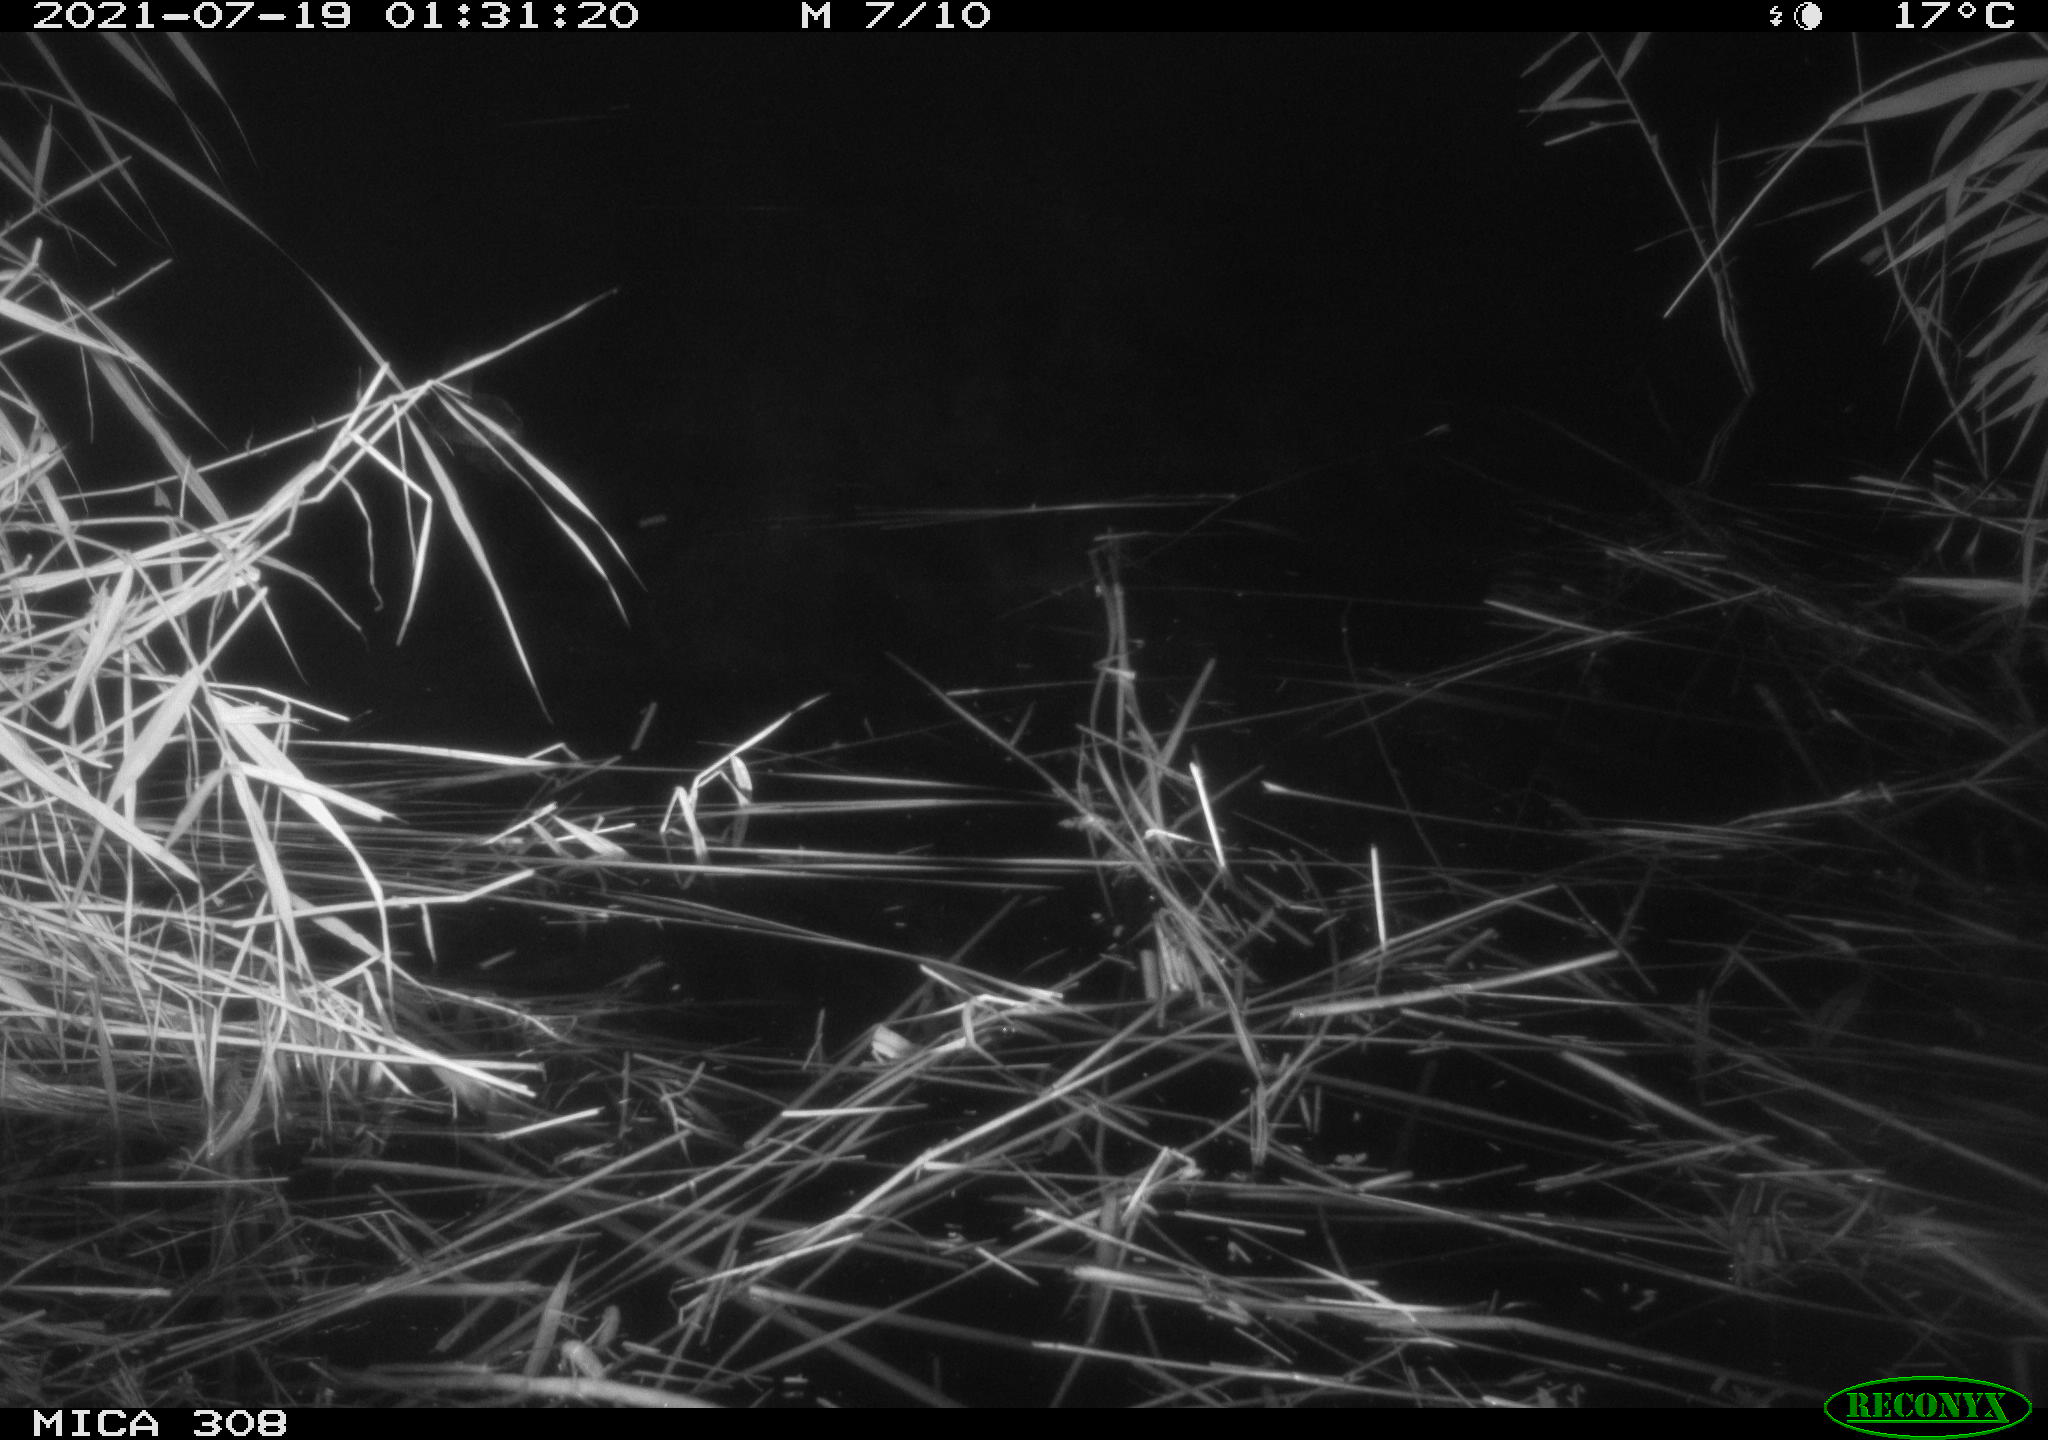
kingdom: Animalia
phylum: Chordata
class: Aves
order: Anseriformes
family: Anatidae
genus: Anas
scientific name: Anas platyrhynchos
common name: Mallard
